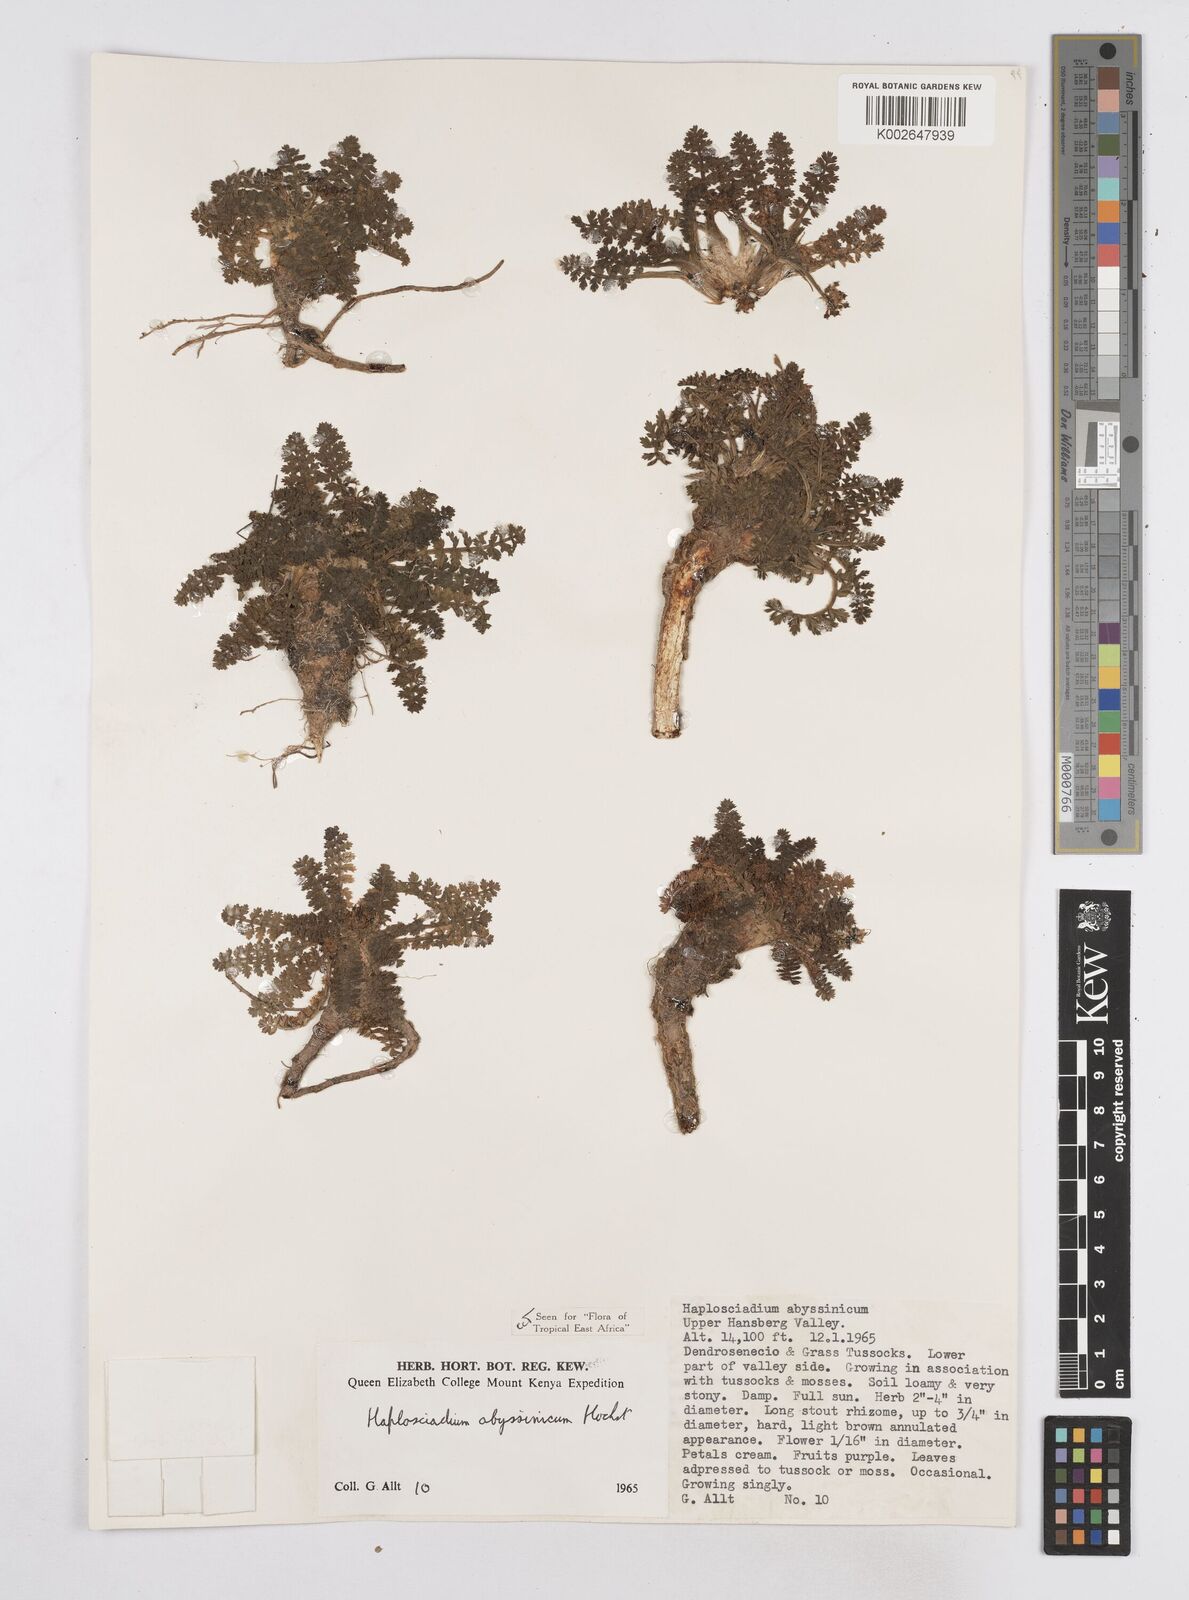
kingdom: Plantae
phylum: Tracheophyta
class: Magnoliopsida
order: Apiales
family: Apiaceae
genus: Haplosciadium
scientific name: Haplosciadium abyssinicum
